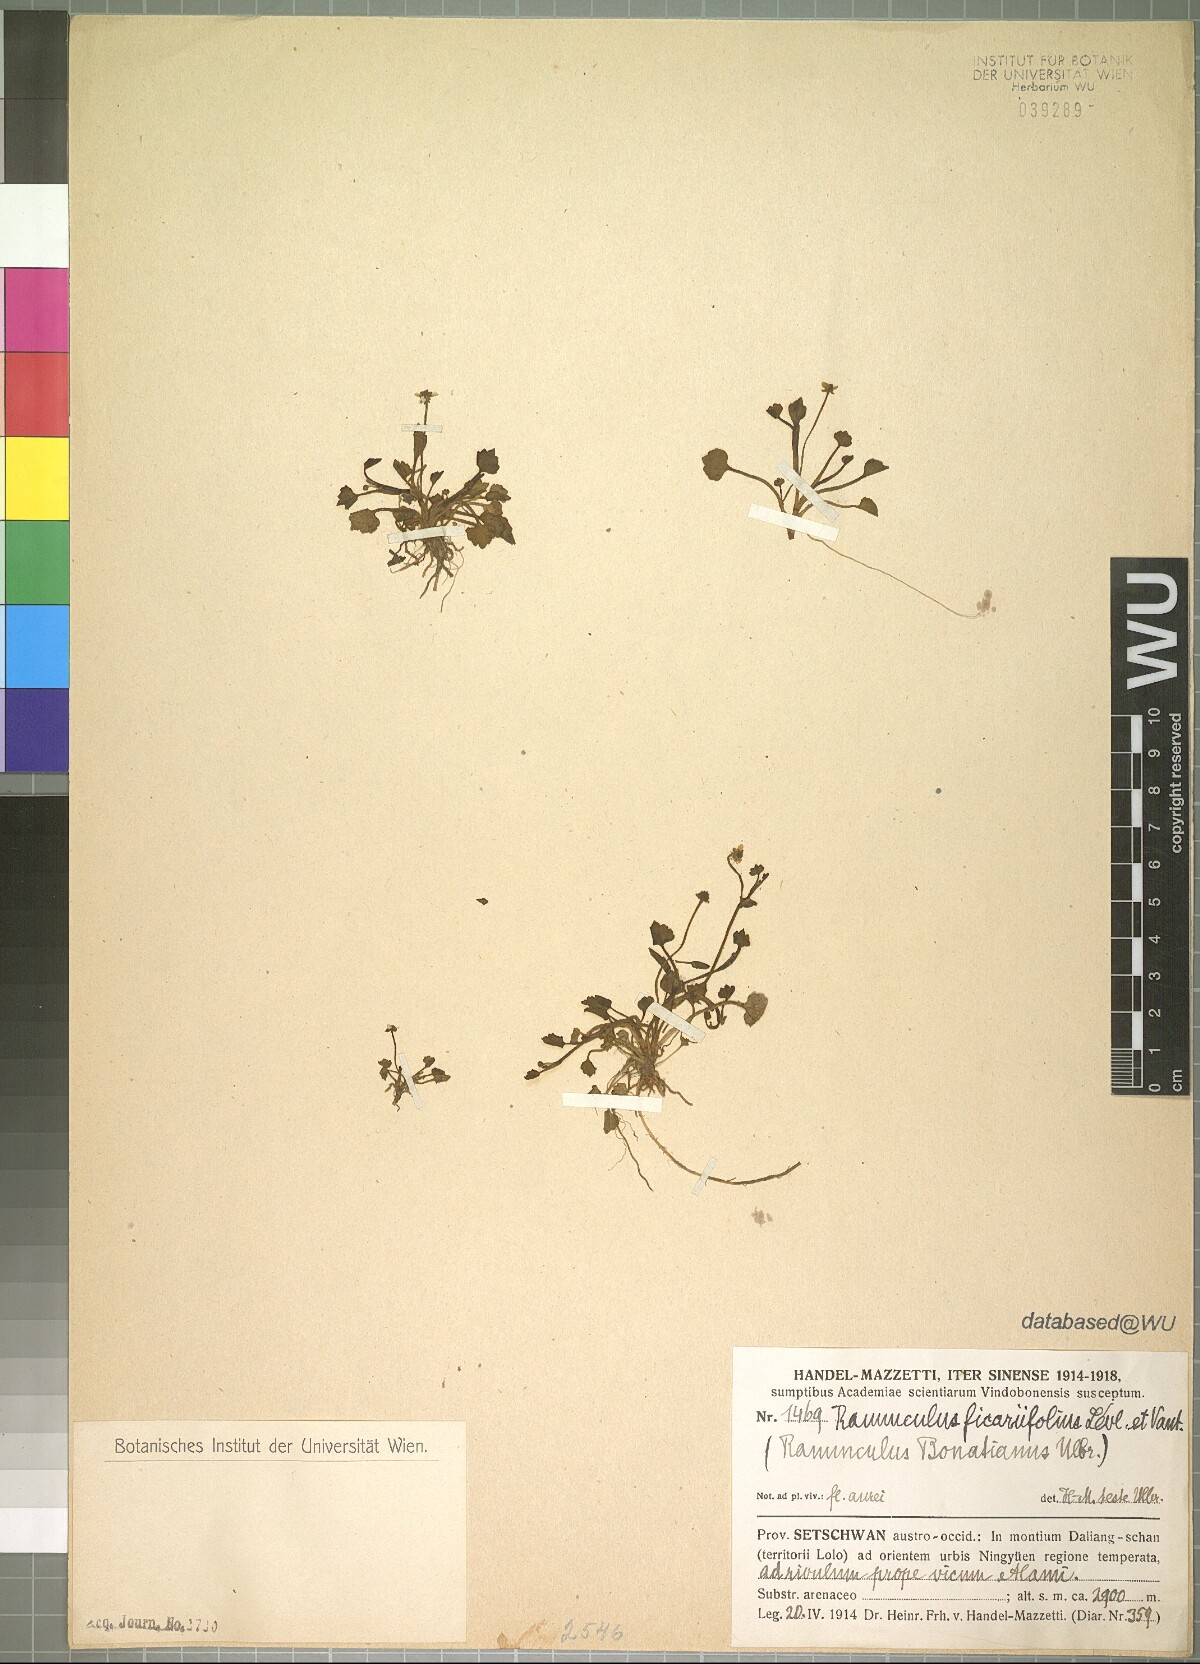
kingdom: Plantae
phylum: Tracheophyta
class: Magnoliopsida
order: Ranunculales
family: Ranunculaceae
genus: Ranunculus
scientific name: Ranunculus microphyllus
